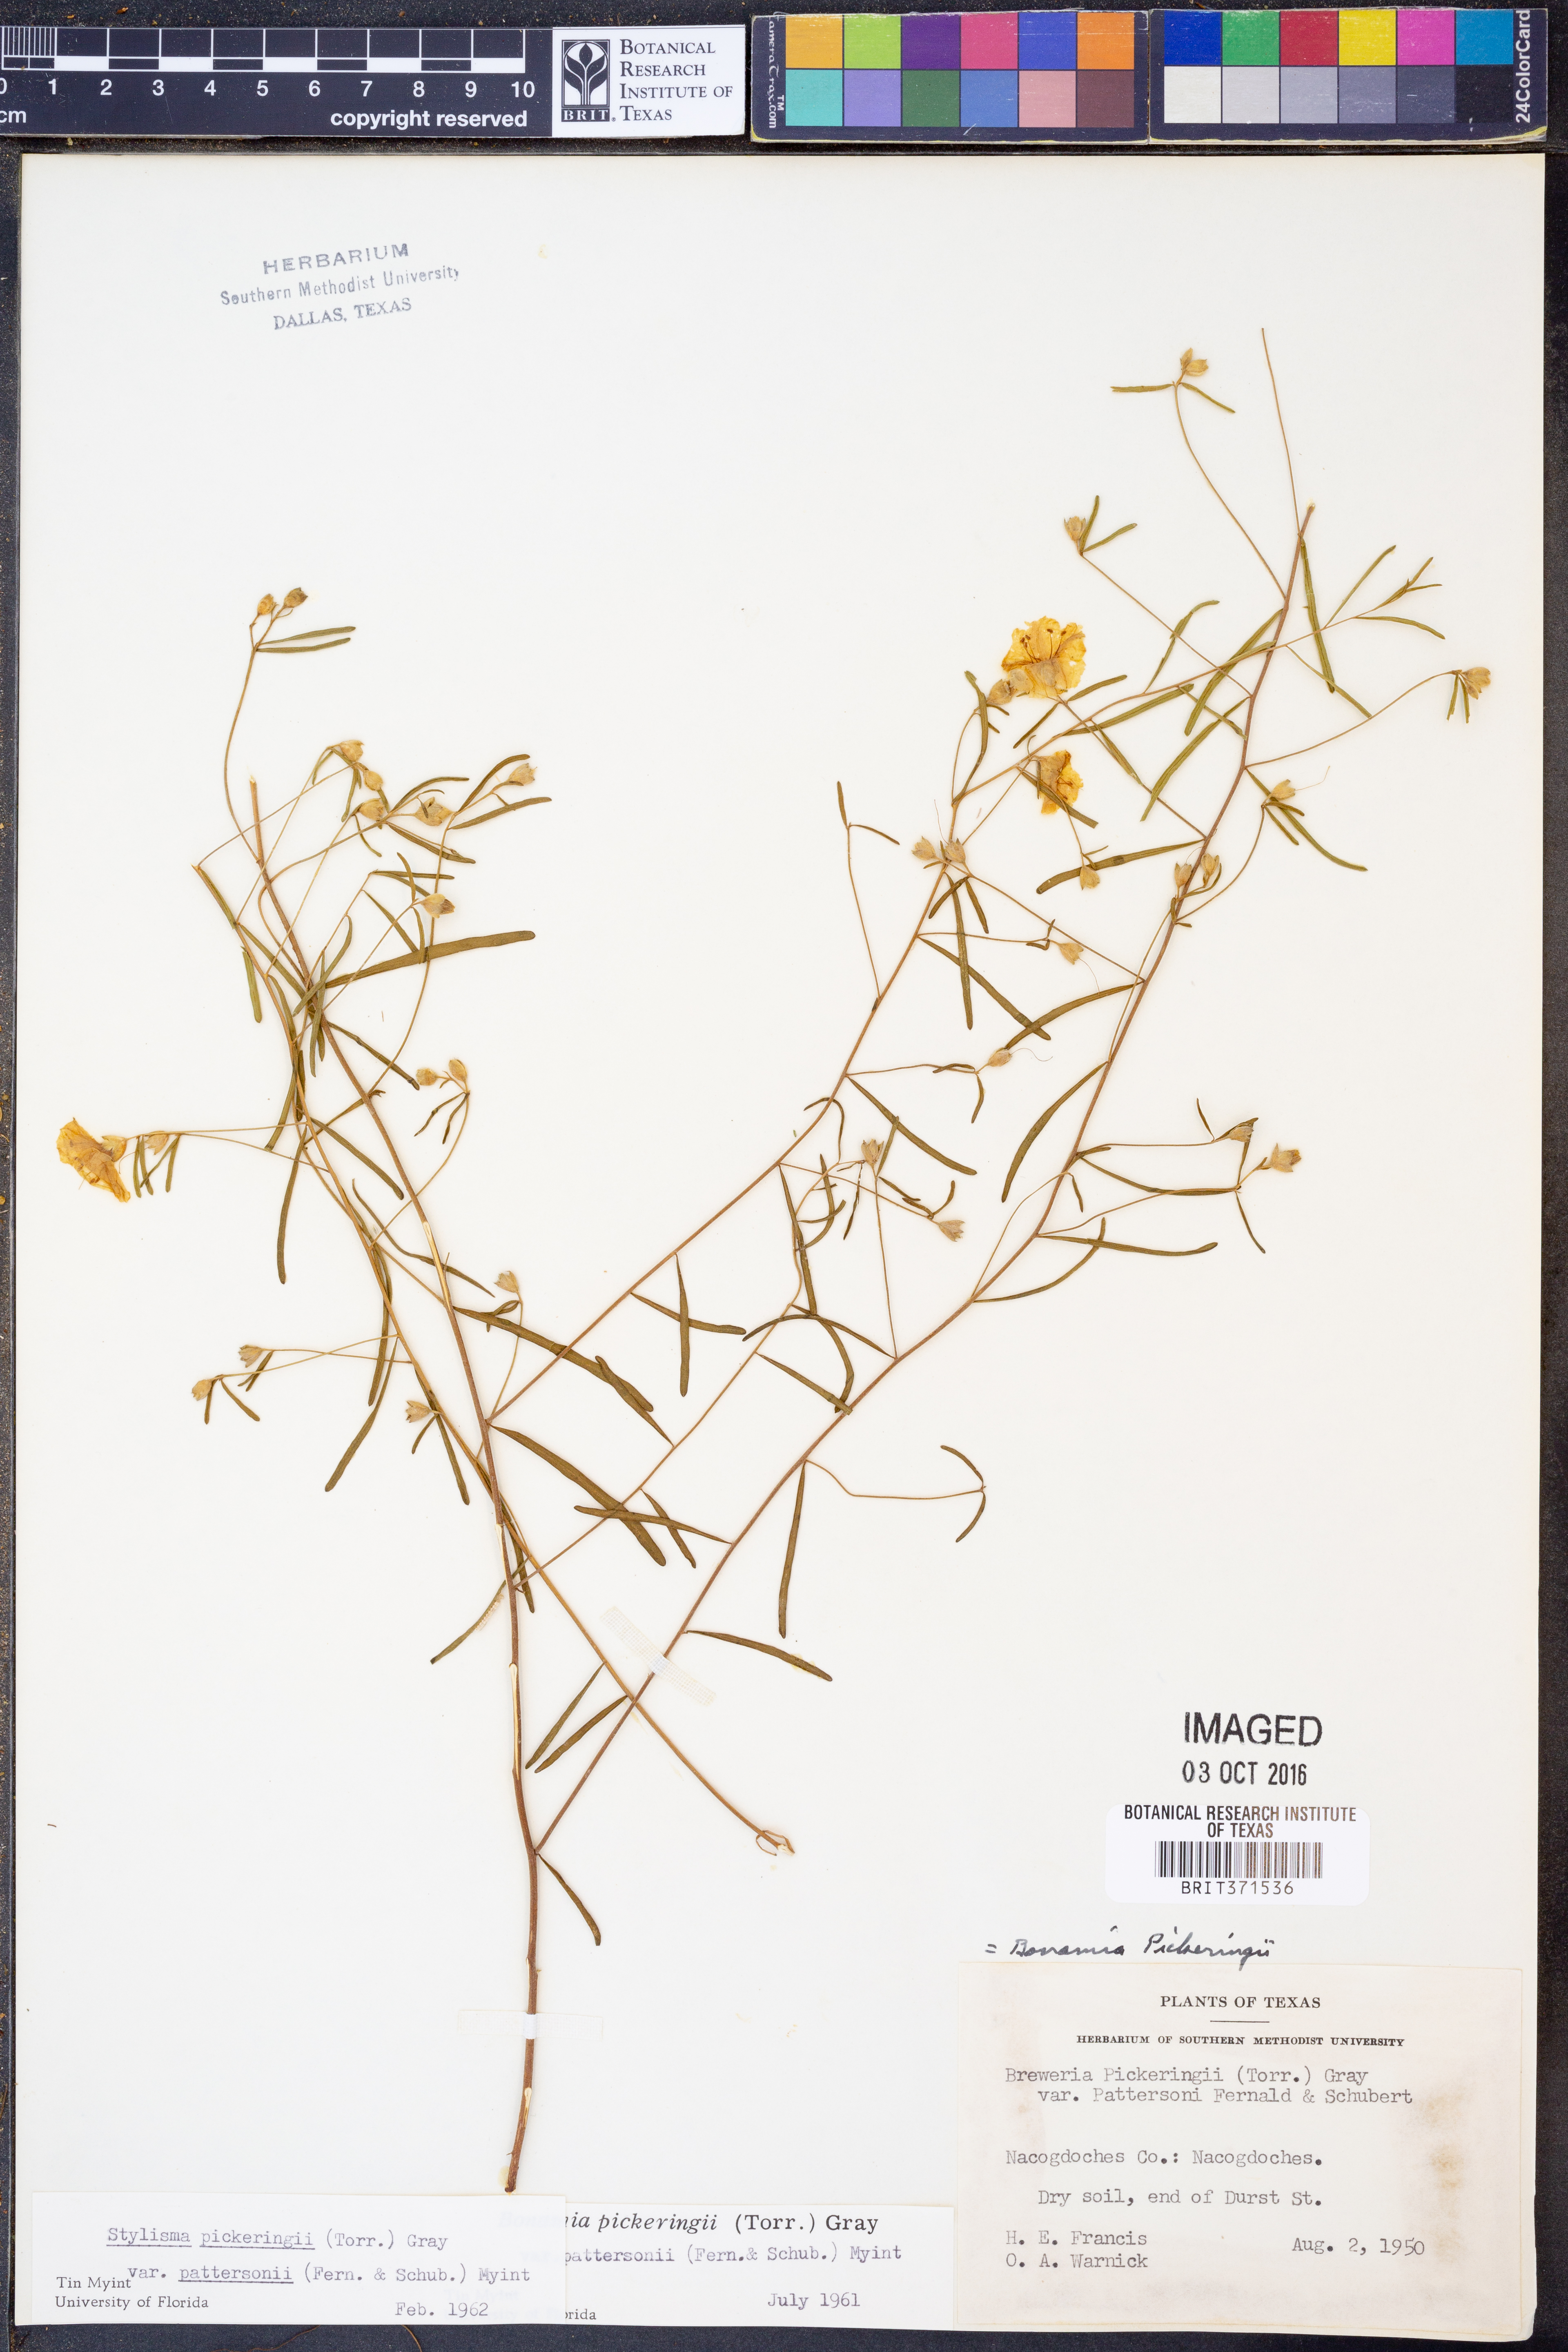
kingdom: Plantae
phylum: Tracheophyta
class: Magnoliopsida
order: Solanales
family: Convolvulaceae
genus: Stylisma
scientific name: Stylisma pickeringii
